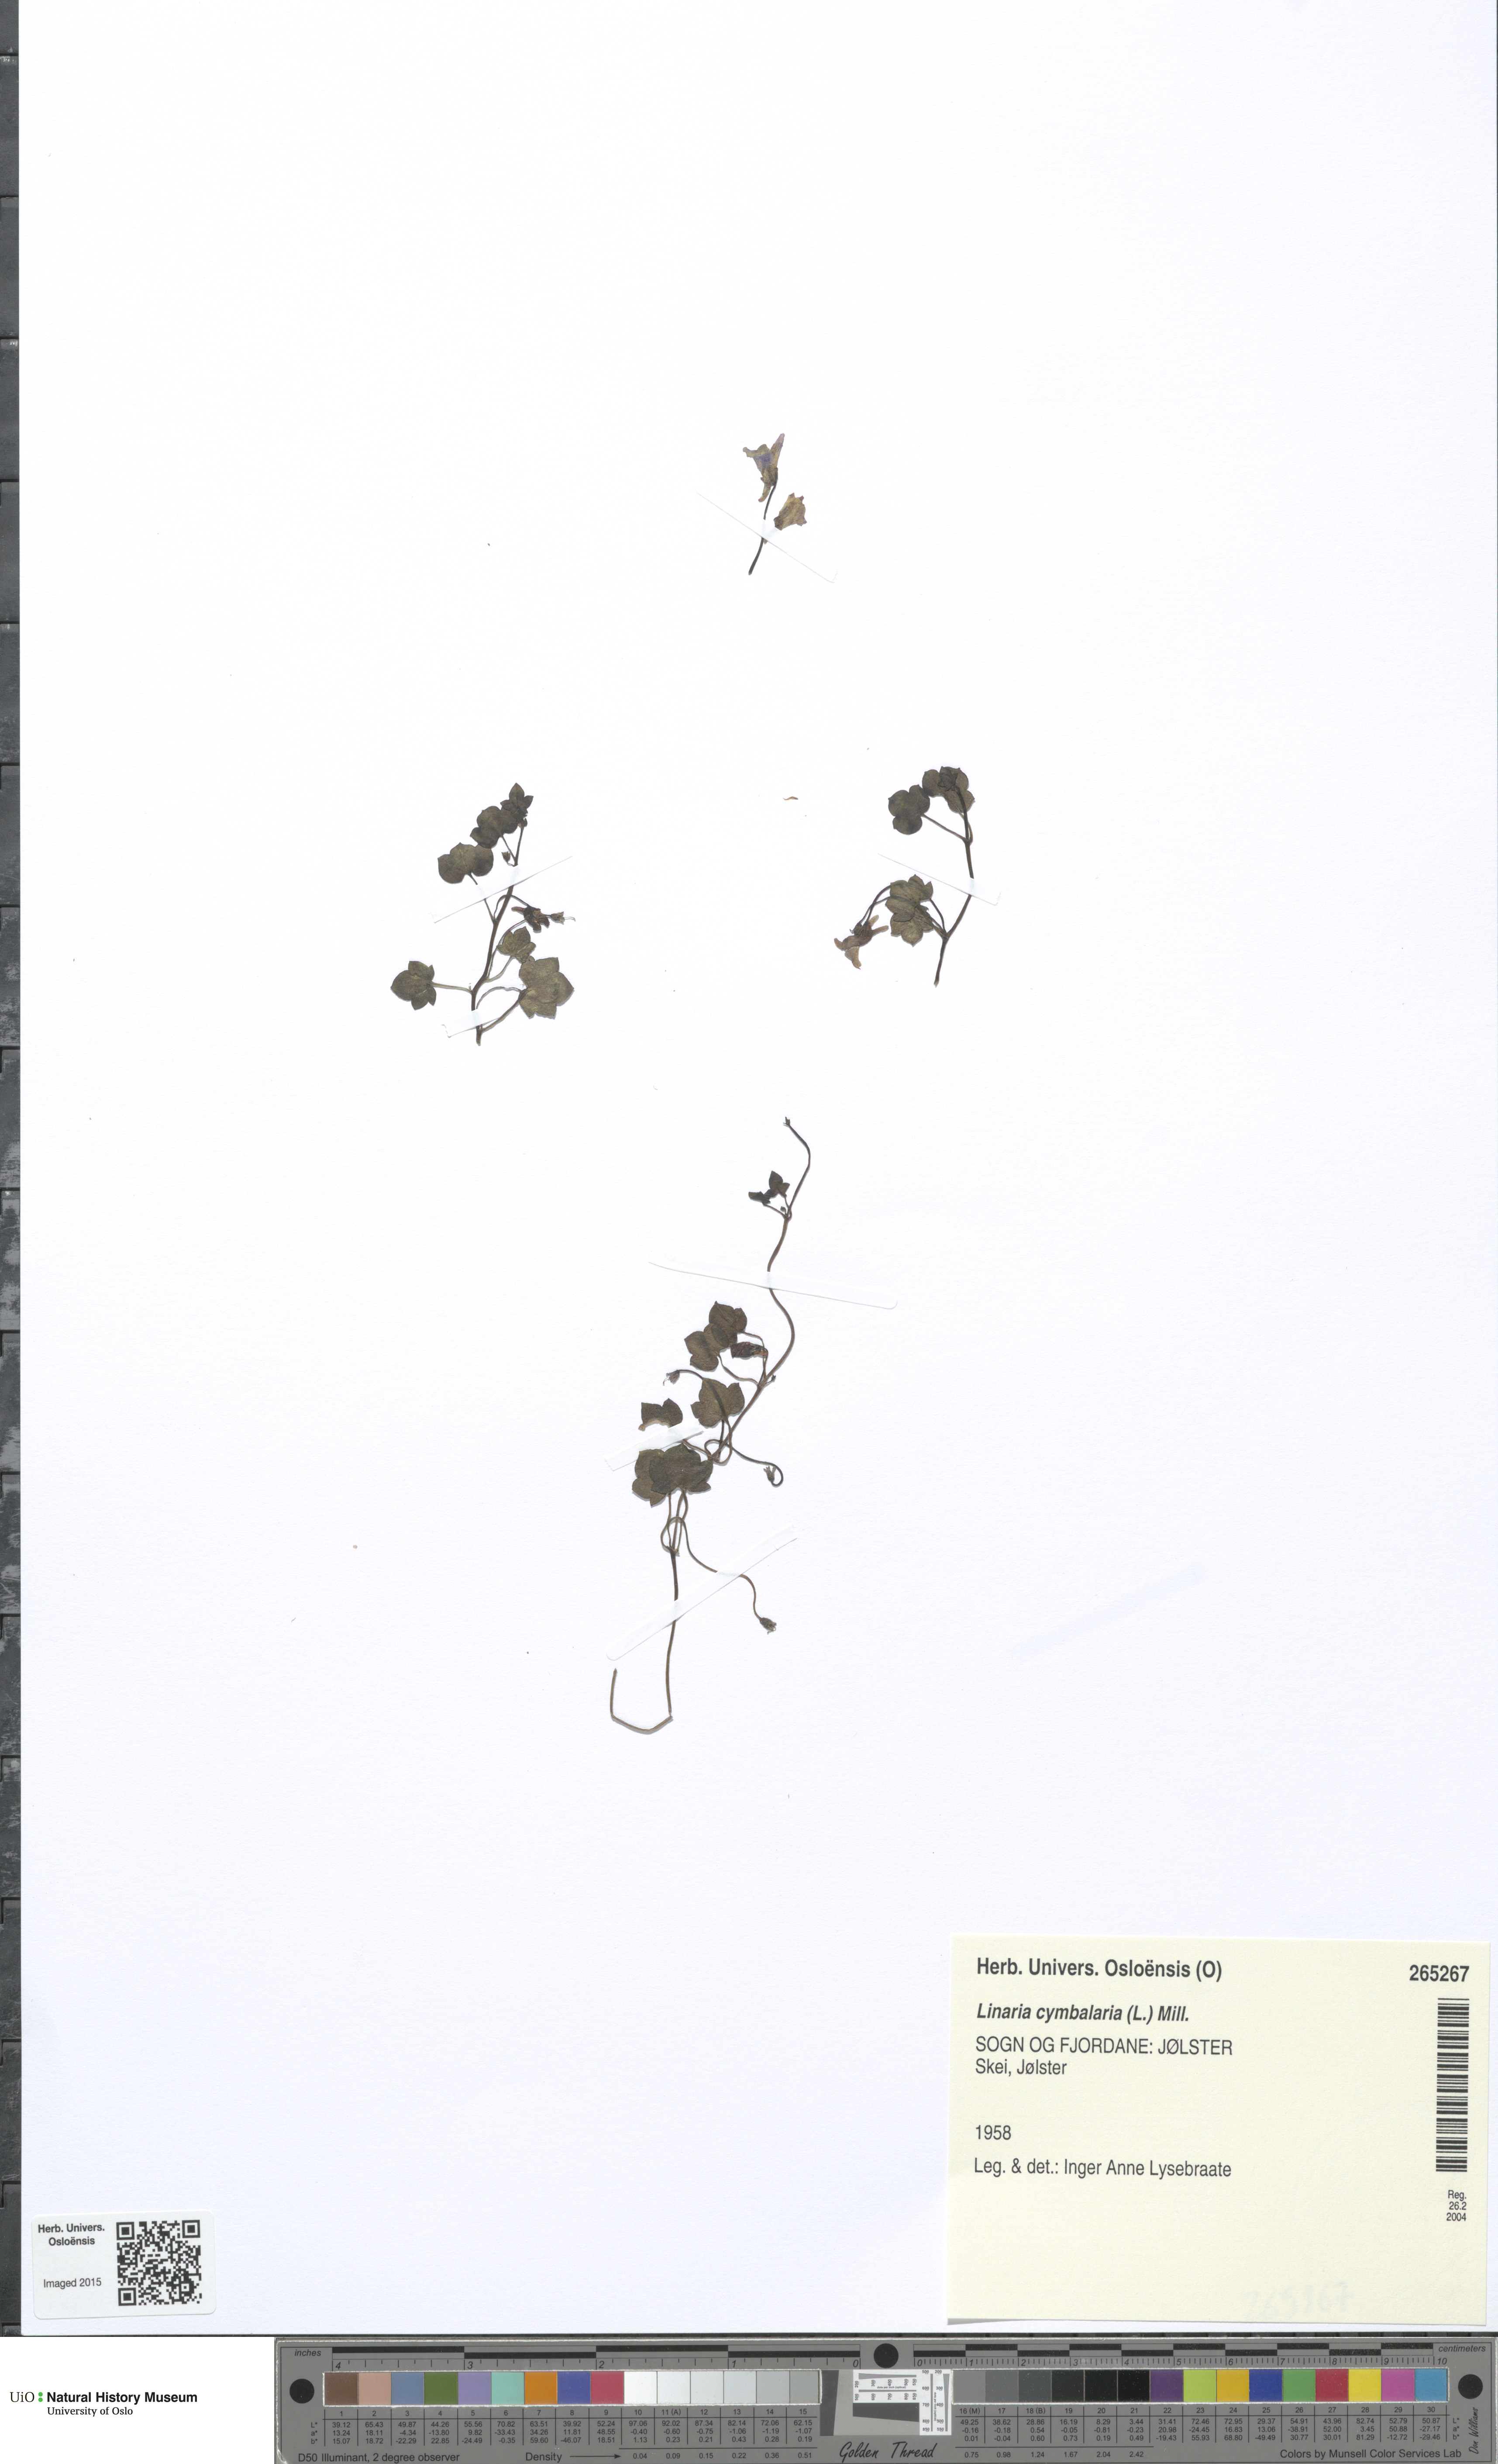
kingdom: Plantae
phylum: Tracheophyta
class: Magnoliopsida
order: Lamiales
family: Plantaginaceae
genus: Cymbalaria
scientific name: Cymbalaria muralis
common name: Ivy-leaved toadflax
